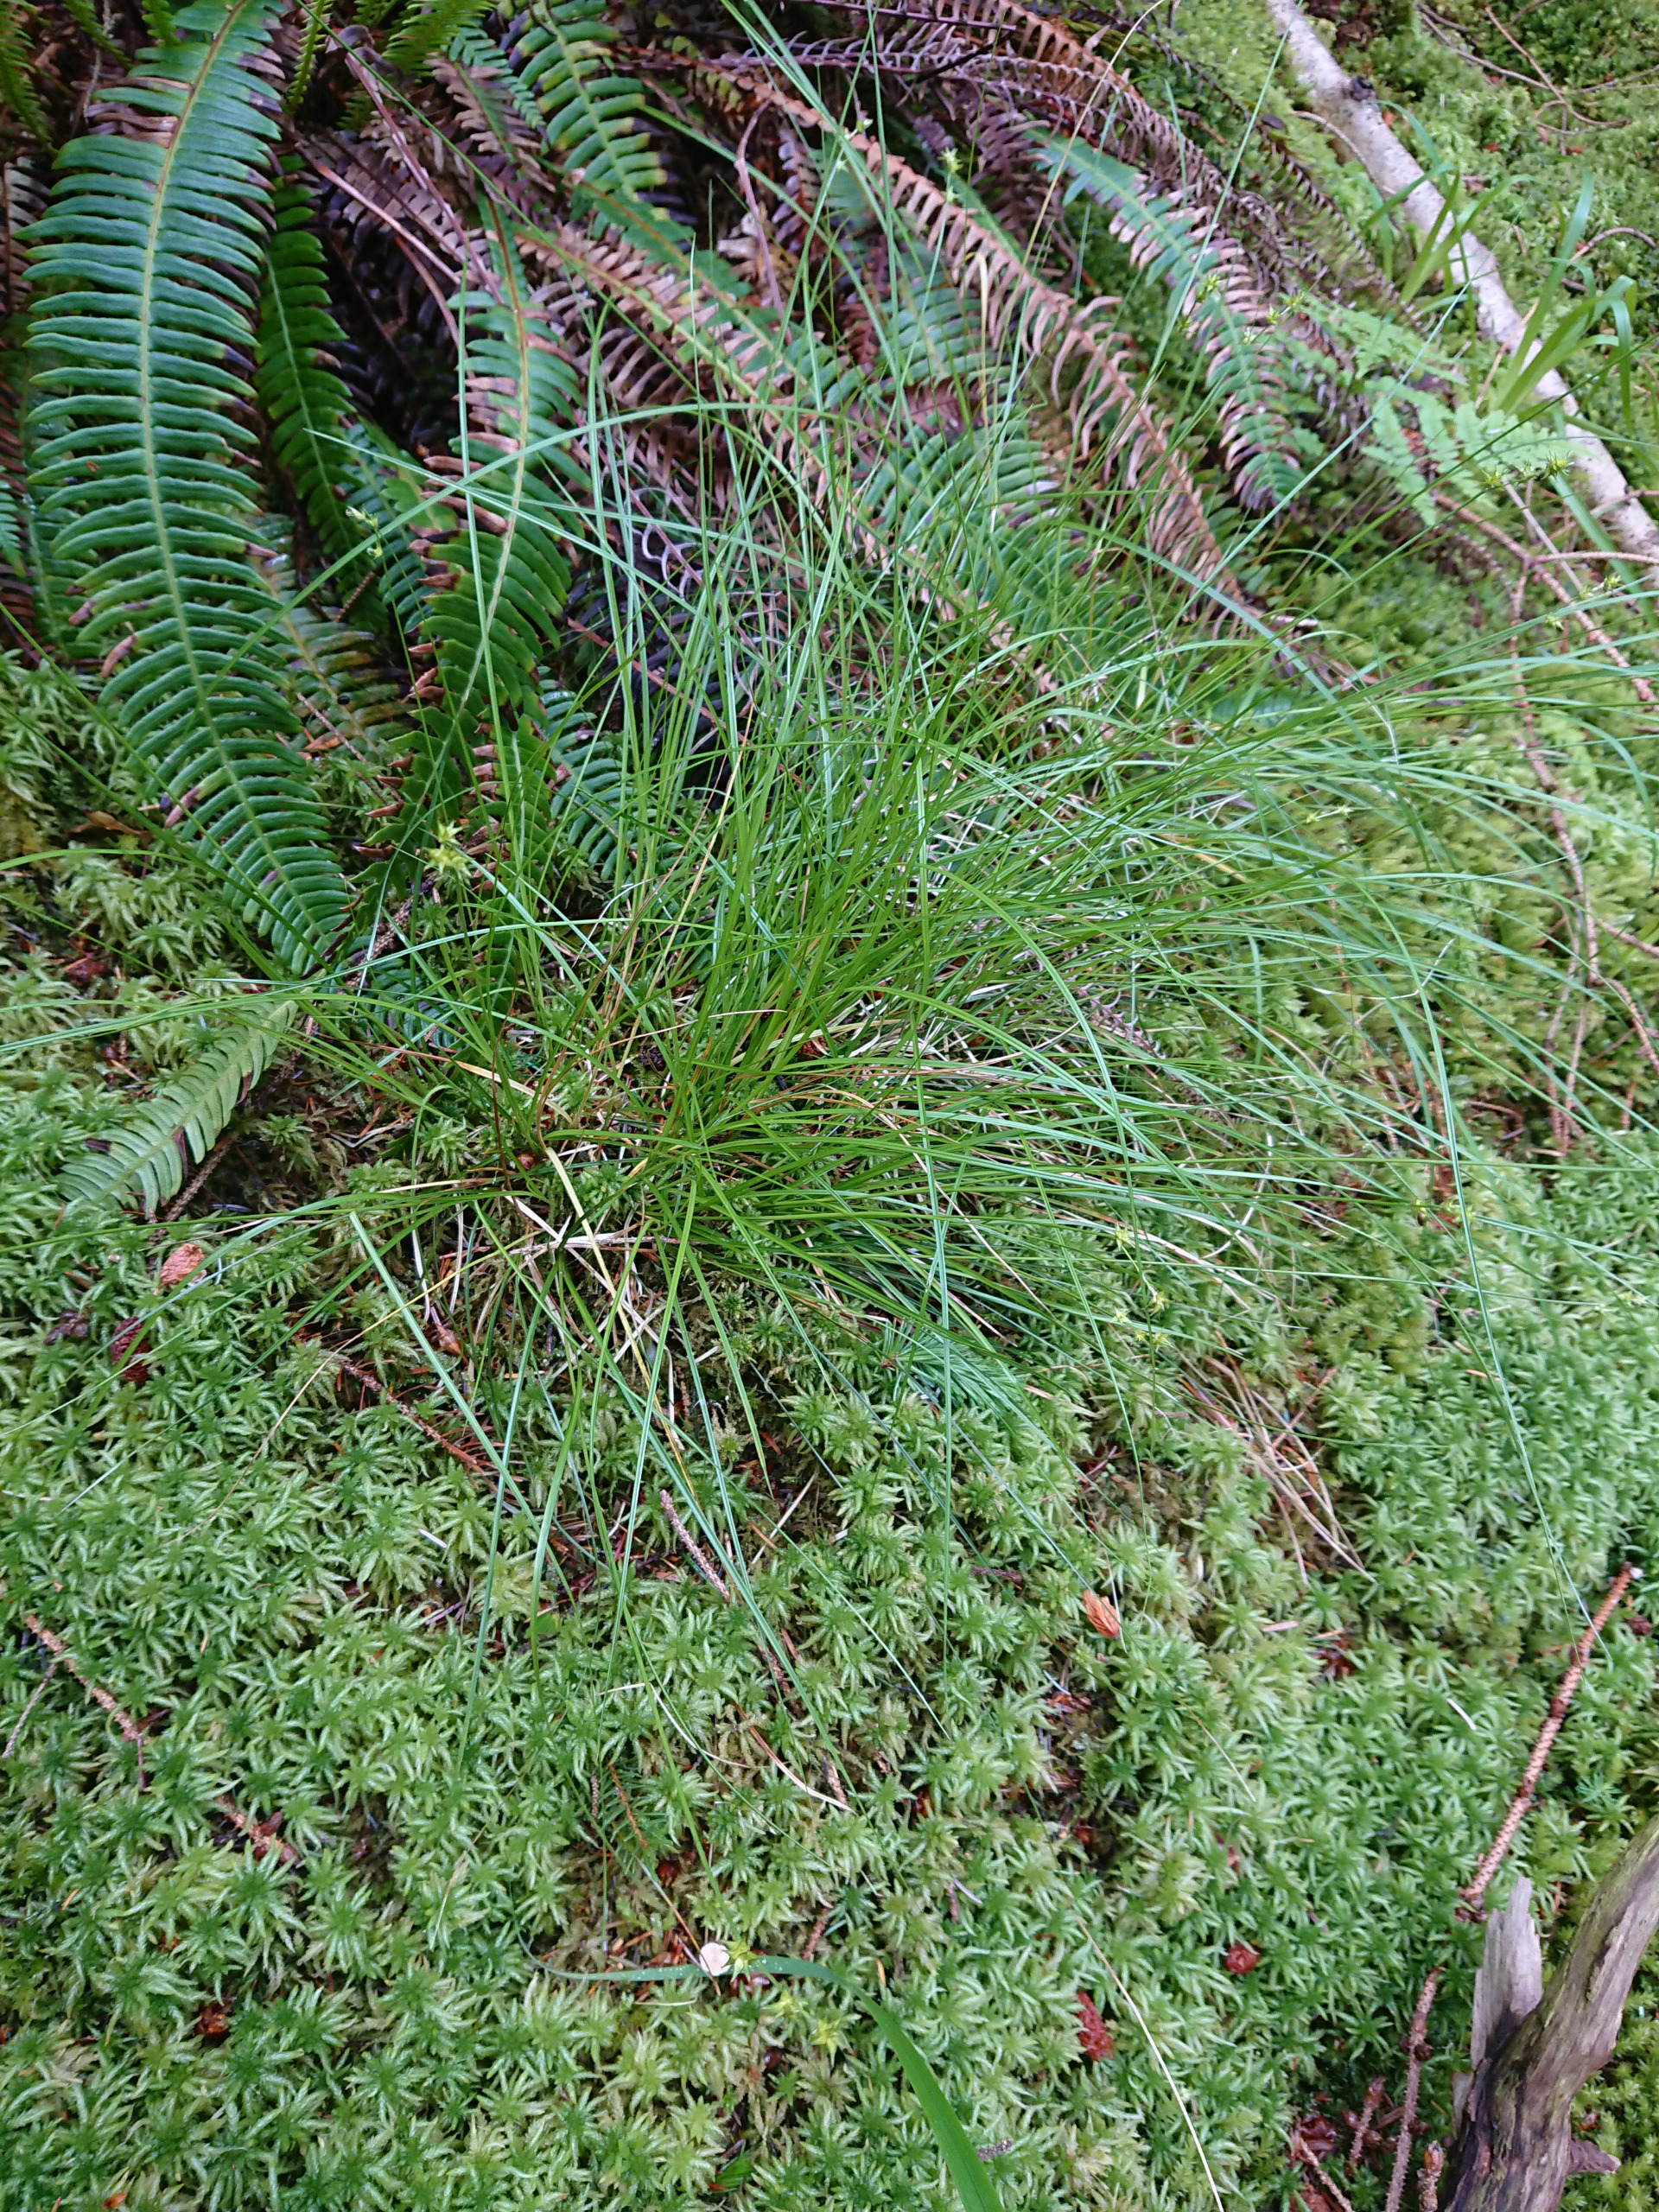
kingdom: Plantae
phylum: Tracheophyta
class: Liliopsida
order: Poales
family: Cyperaceae
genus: Carex
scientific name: Carex echinata
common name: Stjerne-star
